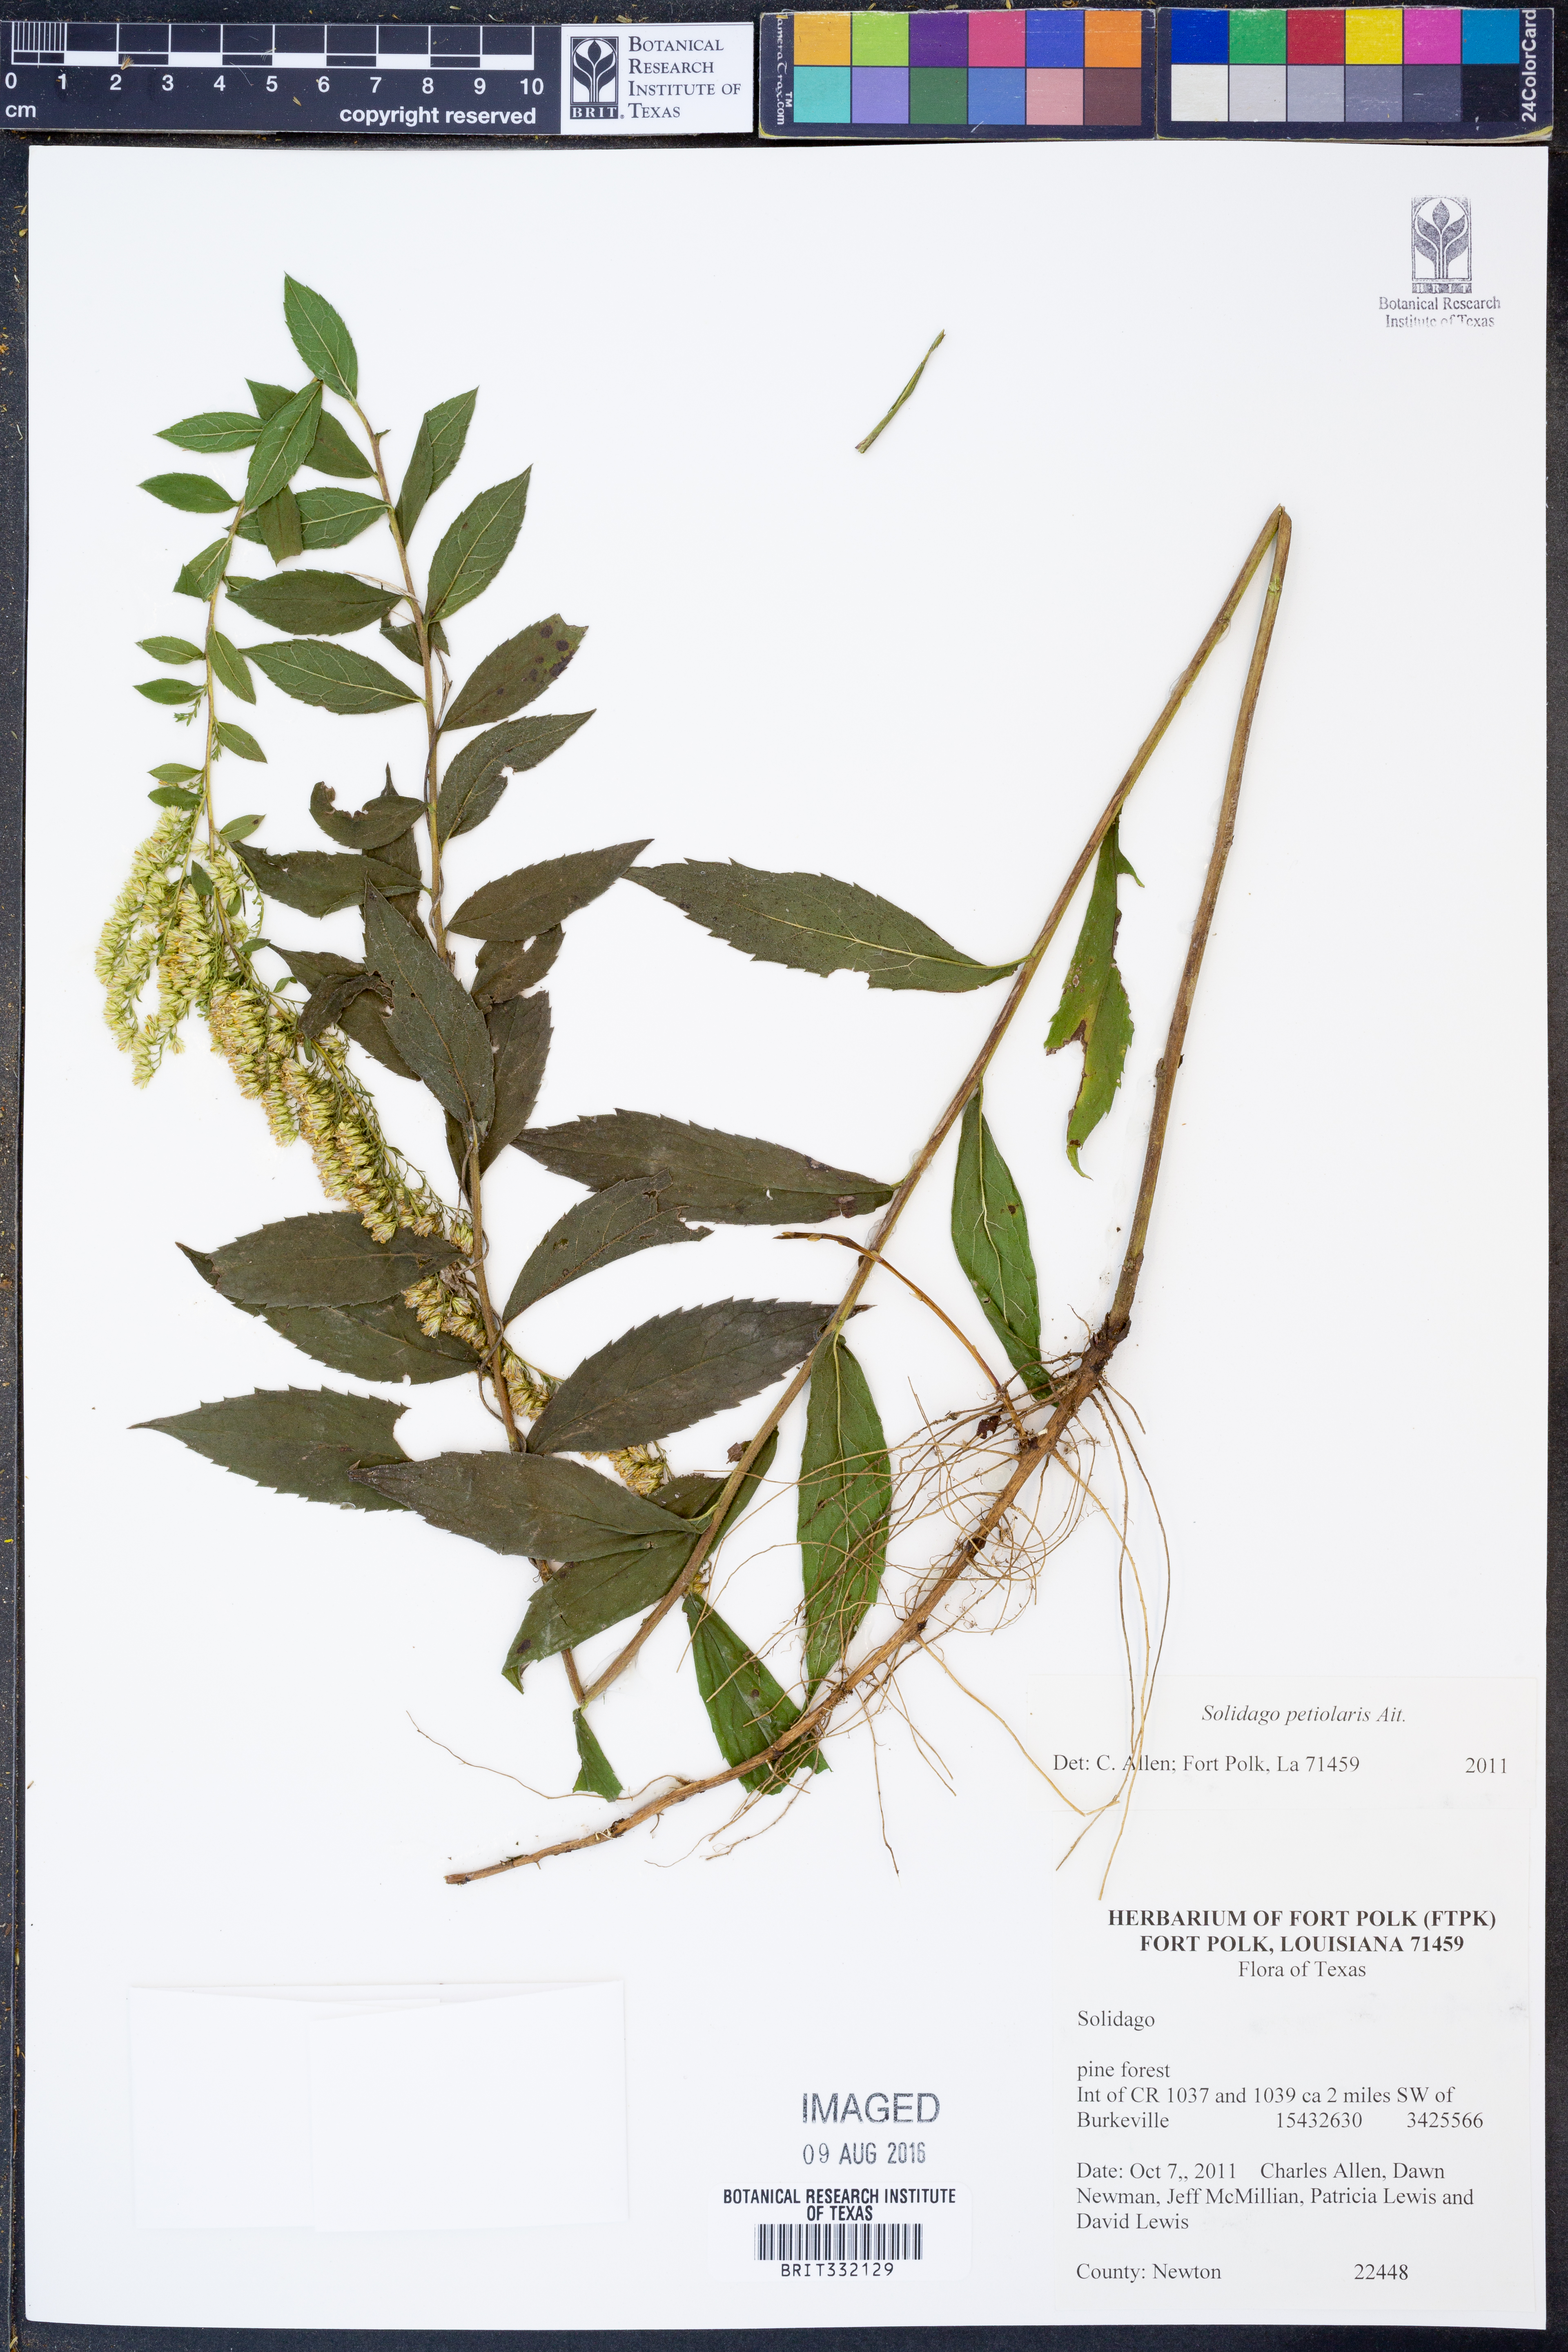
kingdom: Plantae
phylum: Tracheophyta
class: Magnoliopsida
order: Asterales
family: Asteraceae
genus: Solidago
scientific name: Solidago petiolaris
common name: Downy ragged goldenrod
